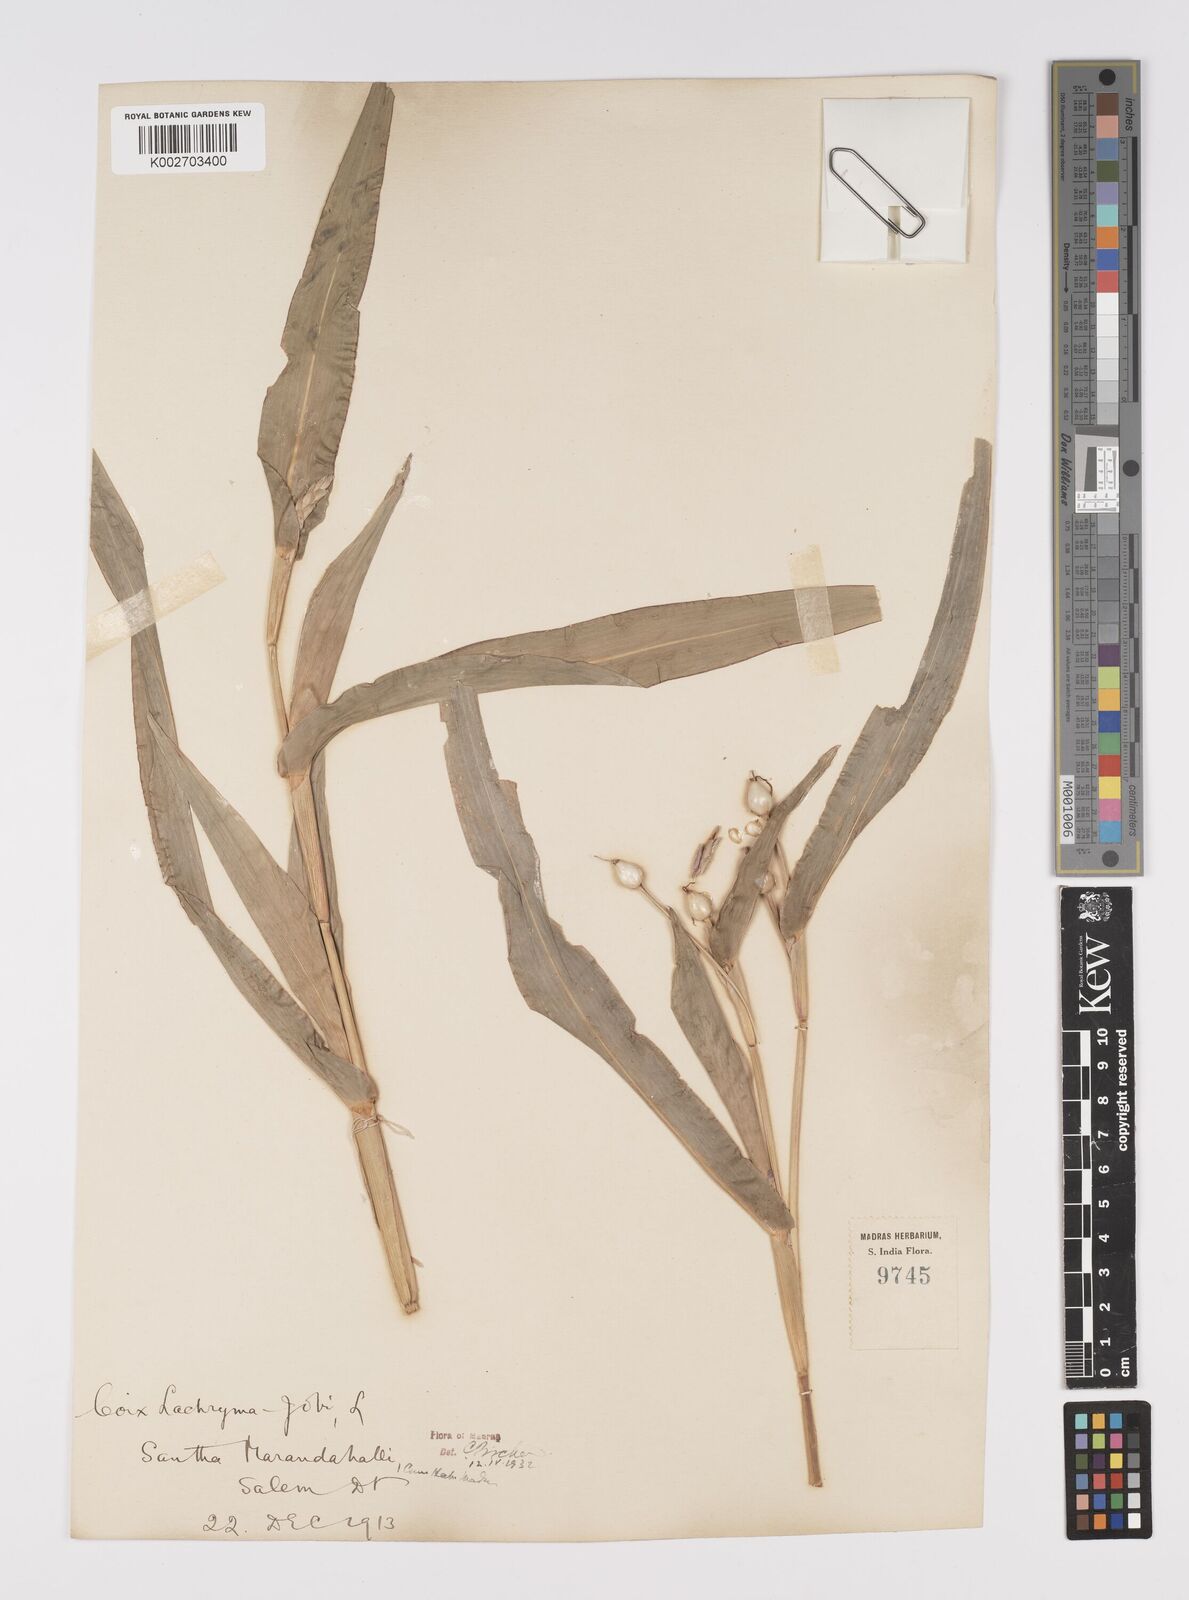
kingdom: Plantae
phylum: Tracheophyta
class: Liliopsida
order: Poales
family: Poaceae
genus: Coix
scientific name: Coix lacryma-jobi
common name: Job's tears
